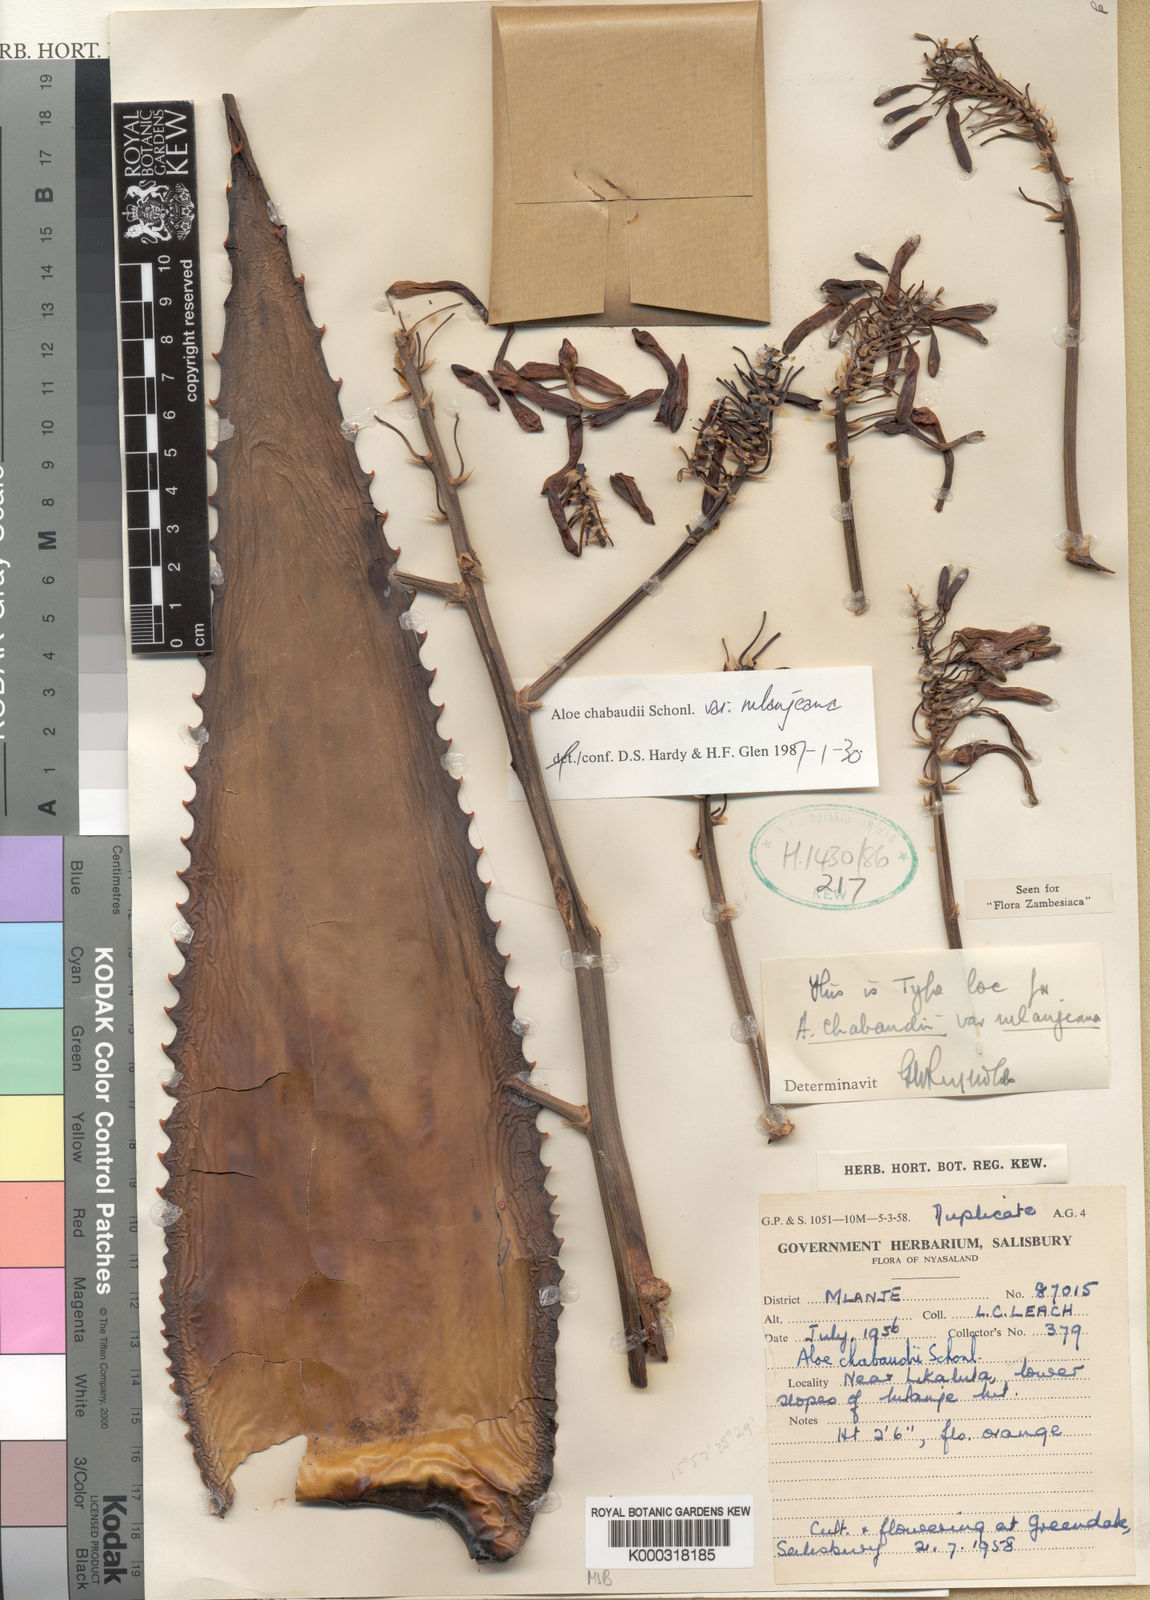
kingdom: Plantae
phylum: Tracheophyta
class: Liliopsida
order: Asparagales
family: Asphodelaceae
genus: Aloe
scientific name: Aloe chabaudii
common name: Chabaud's aloe
